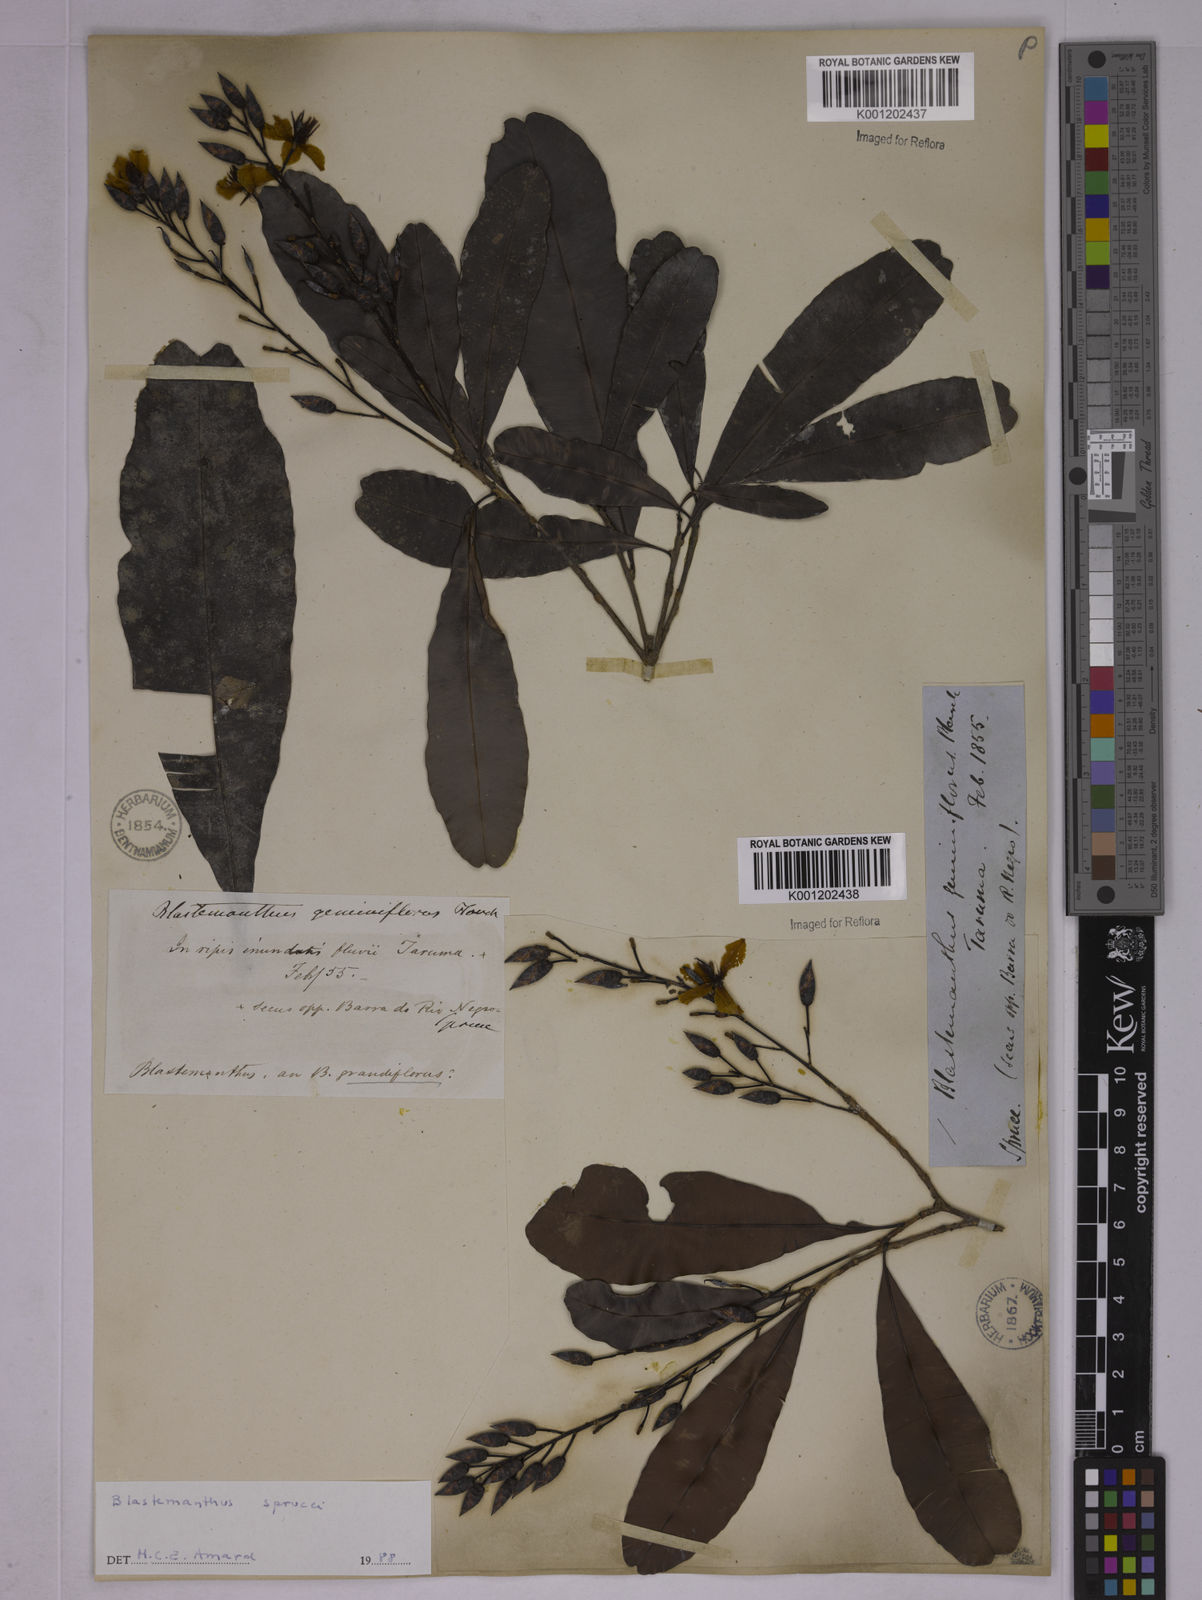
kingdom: Plantae
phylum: Tracheophyta
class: Magnoliopsida
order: Malpighiales
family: Ochnaceae
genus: Blastemanthus
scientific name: Blastemanthus gemmiflorus
